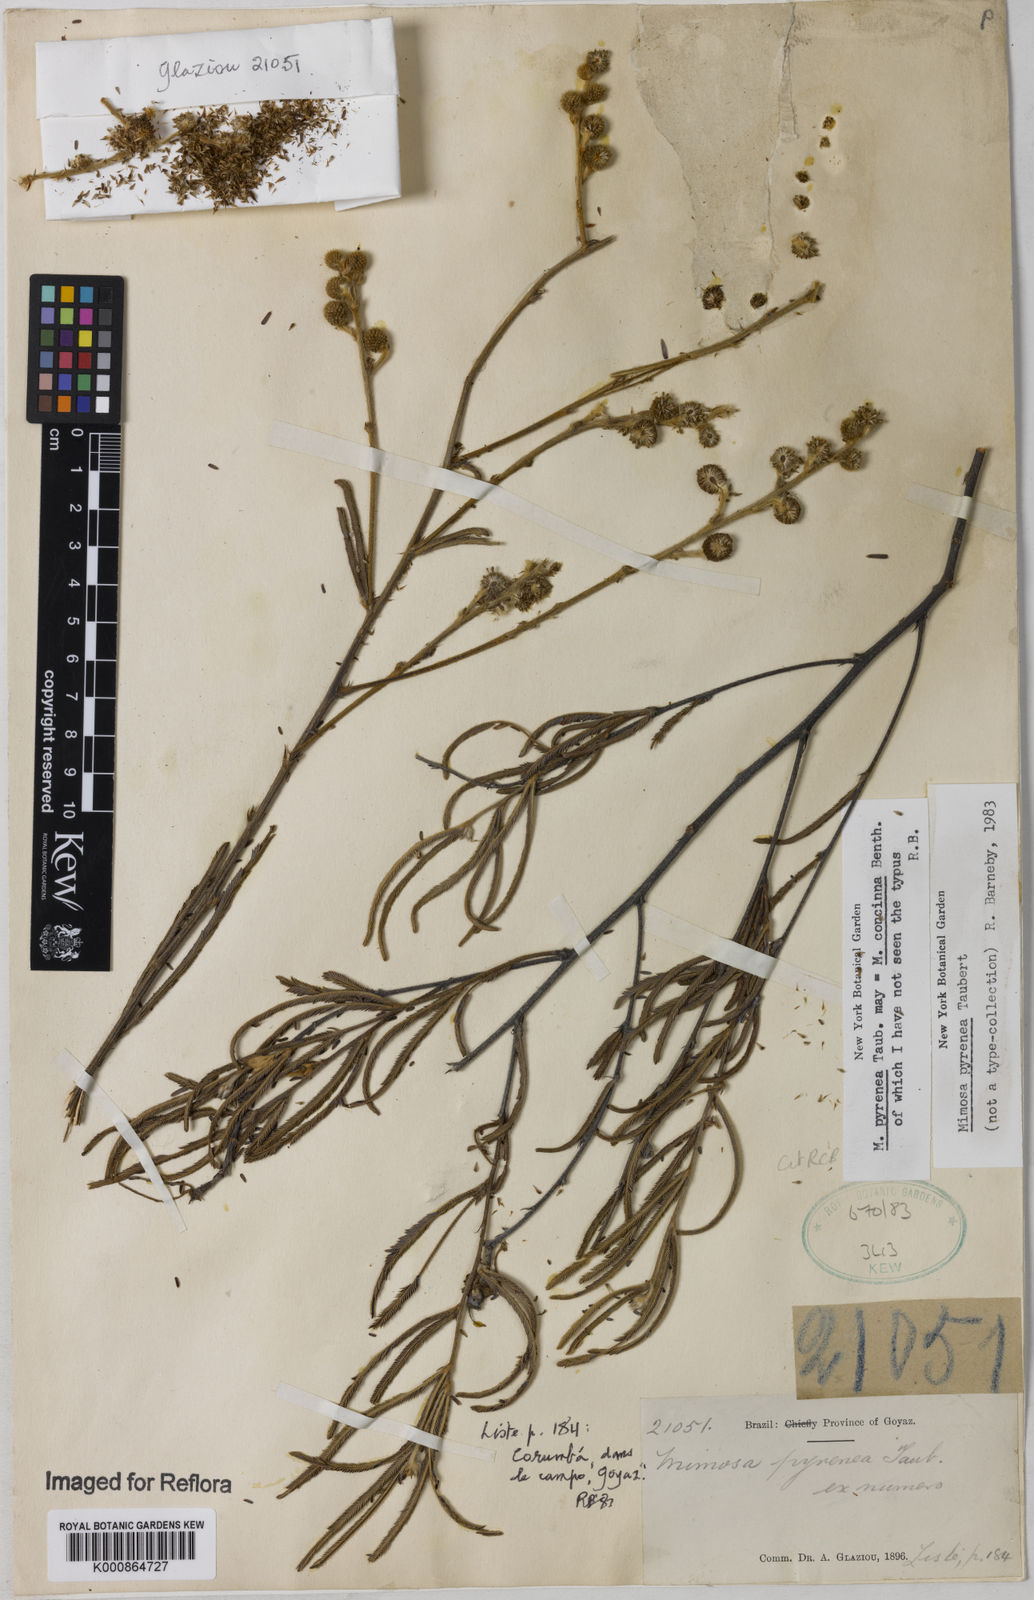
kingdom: Plantae
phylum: Tracheophyta
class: Magnoliopsida
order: Fabales
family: Fabaceae
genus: Mimosa
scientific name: Mimosa pyrenea
